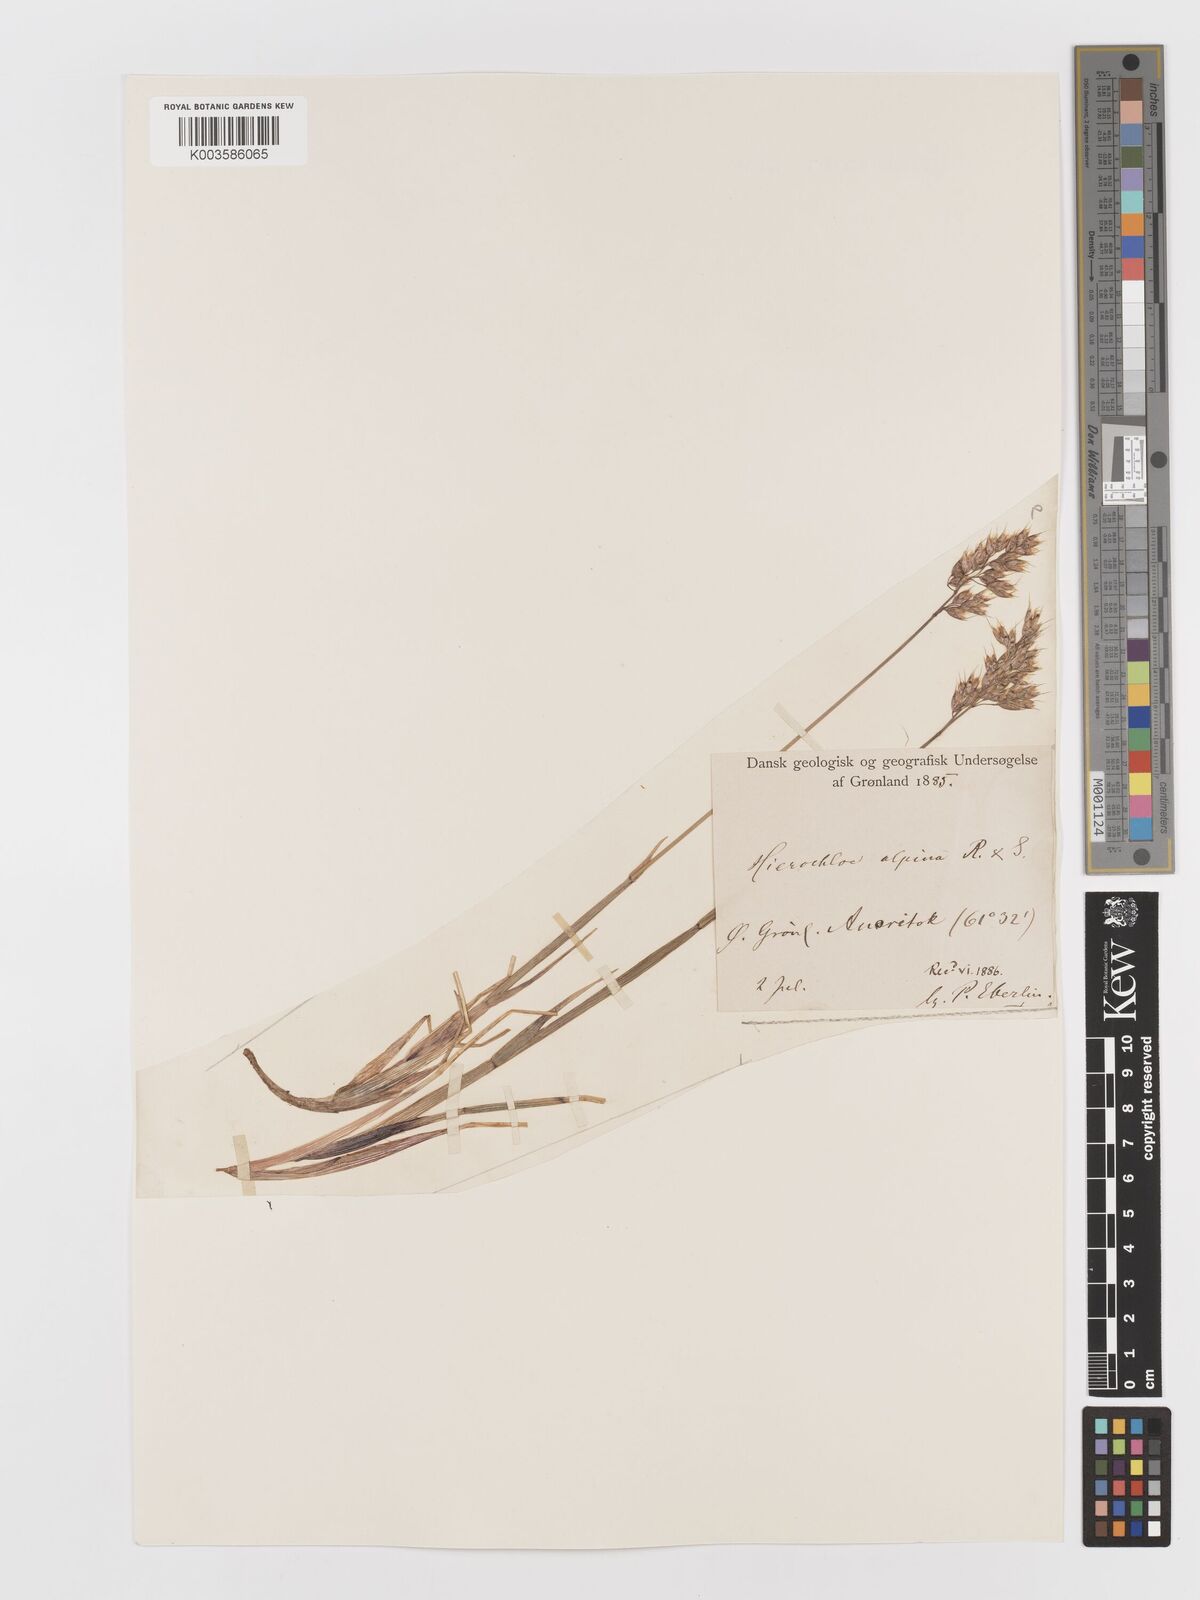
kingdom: Plantae
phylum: Tracheophyta
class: Liliopsida
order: Poales
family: Poaceae
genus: Anthoxanthum
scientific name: Anthoxanthum monticola
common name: Alpine sweetgrass
